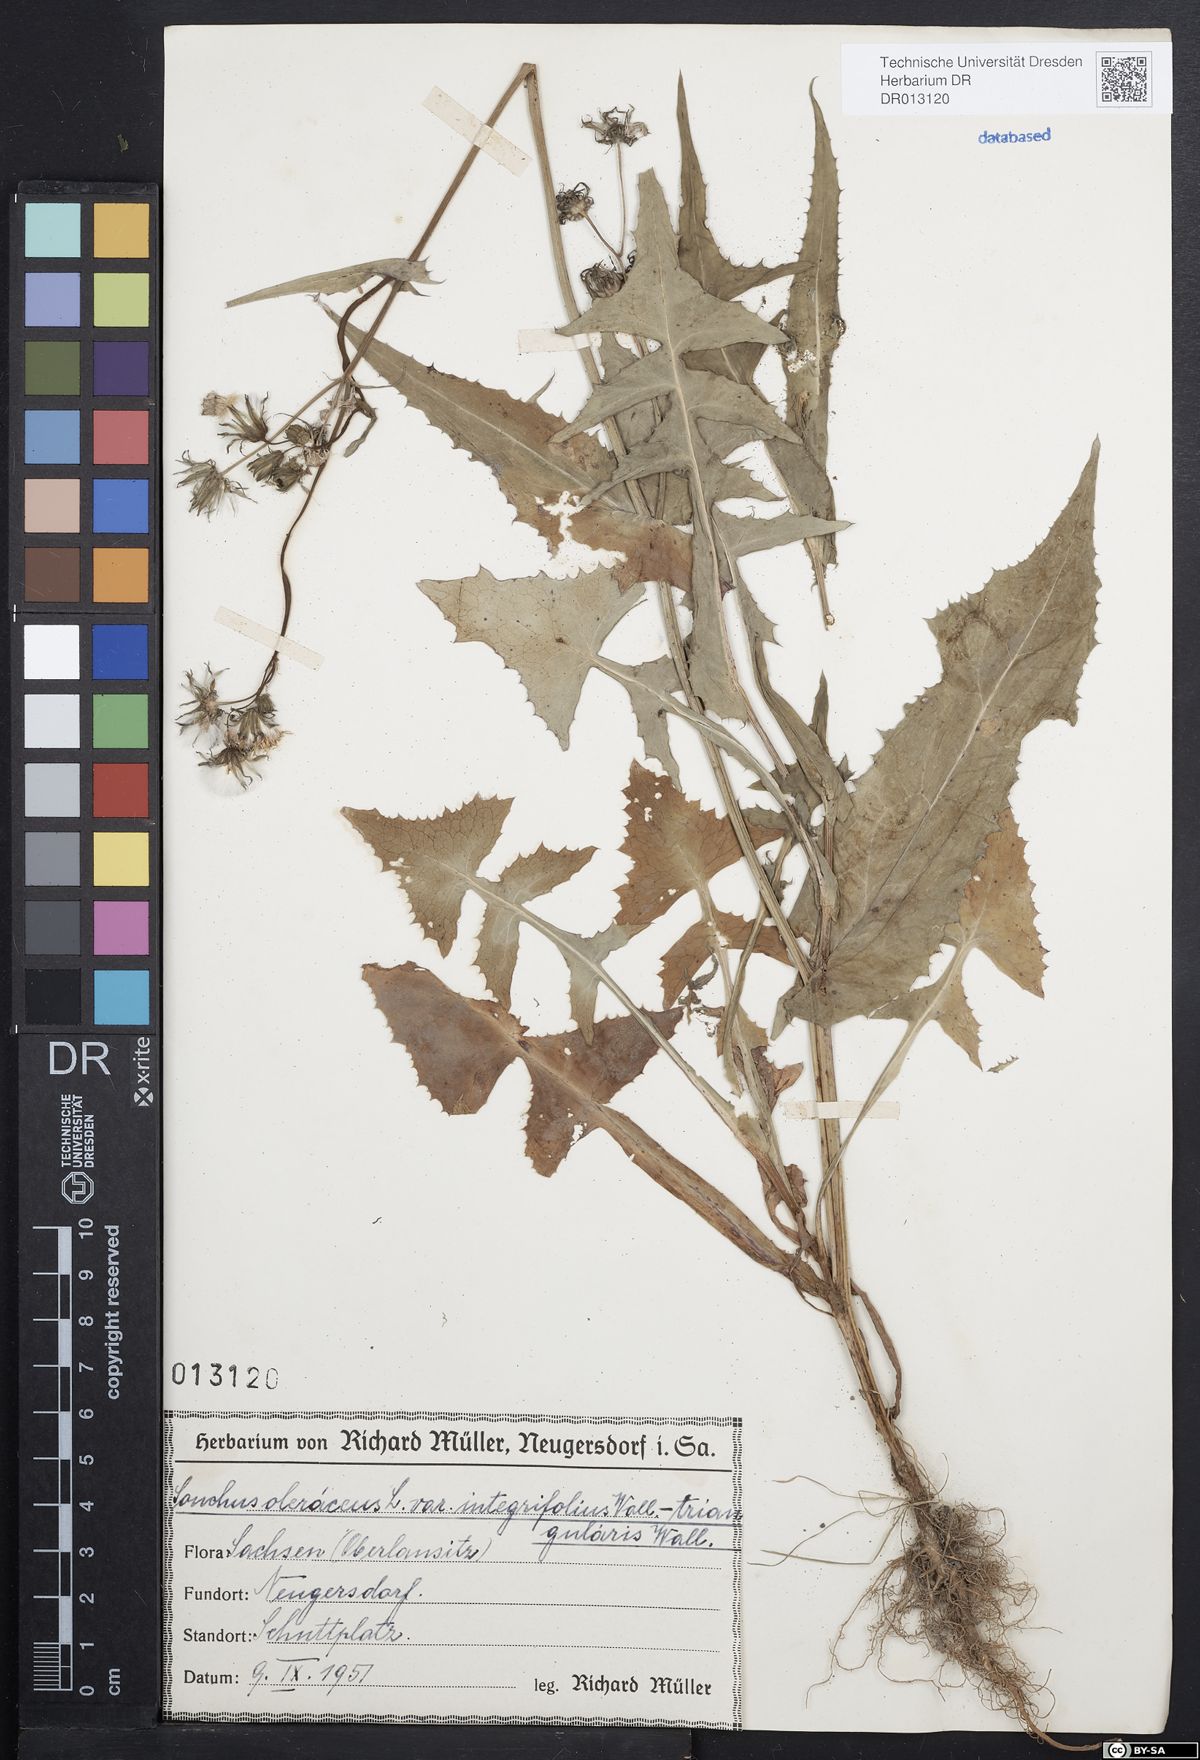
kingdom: Plantae
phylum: Tracheophyta
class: Magnoliopsida
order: Asterales
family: Asteraceae
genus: Sonchus
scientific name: Sonchus oleraceus
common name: Common sowthistle
